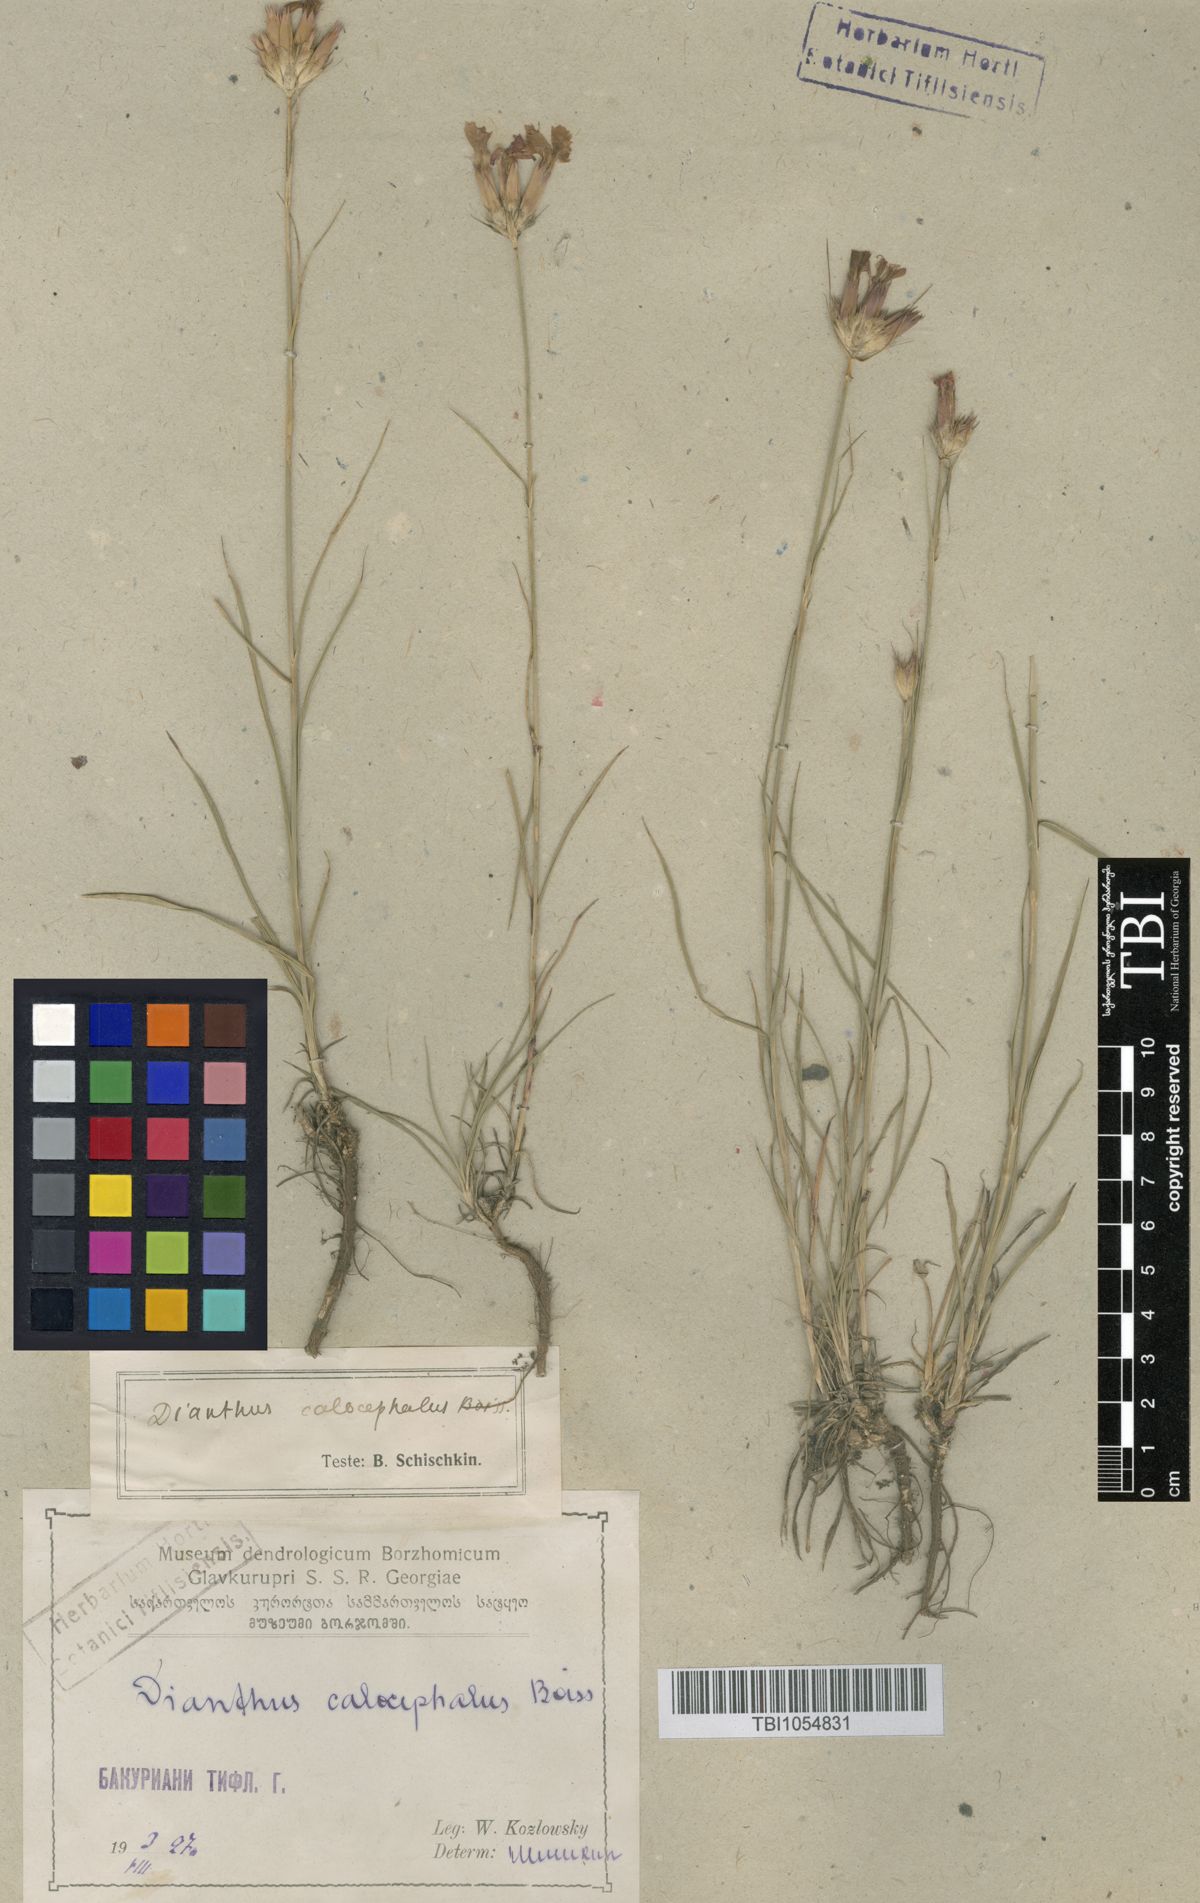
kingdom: Plantae
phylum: Tracheophyta
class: Magnoliopsida
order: Caryophyllales
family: Caryophyllaceae
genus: Dianthus
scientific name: Dianthus cruentus
